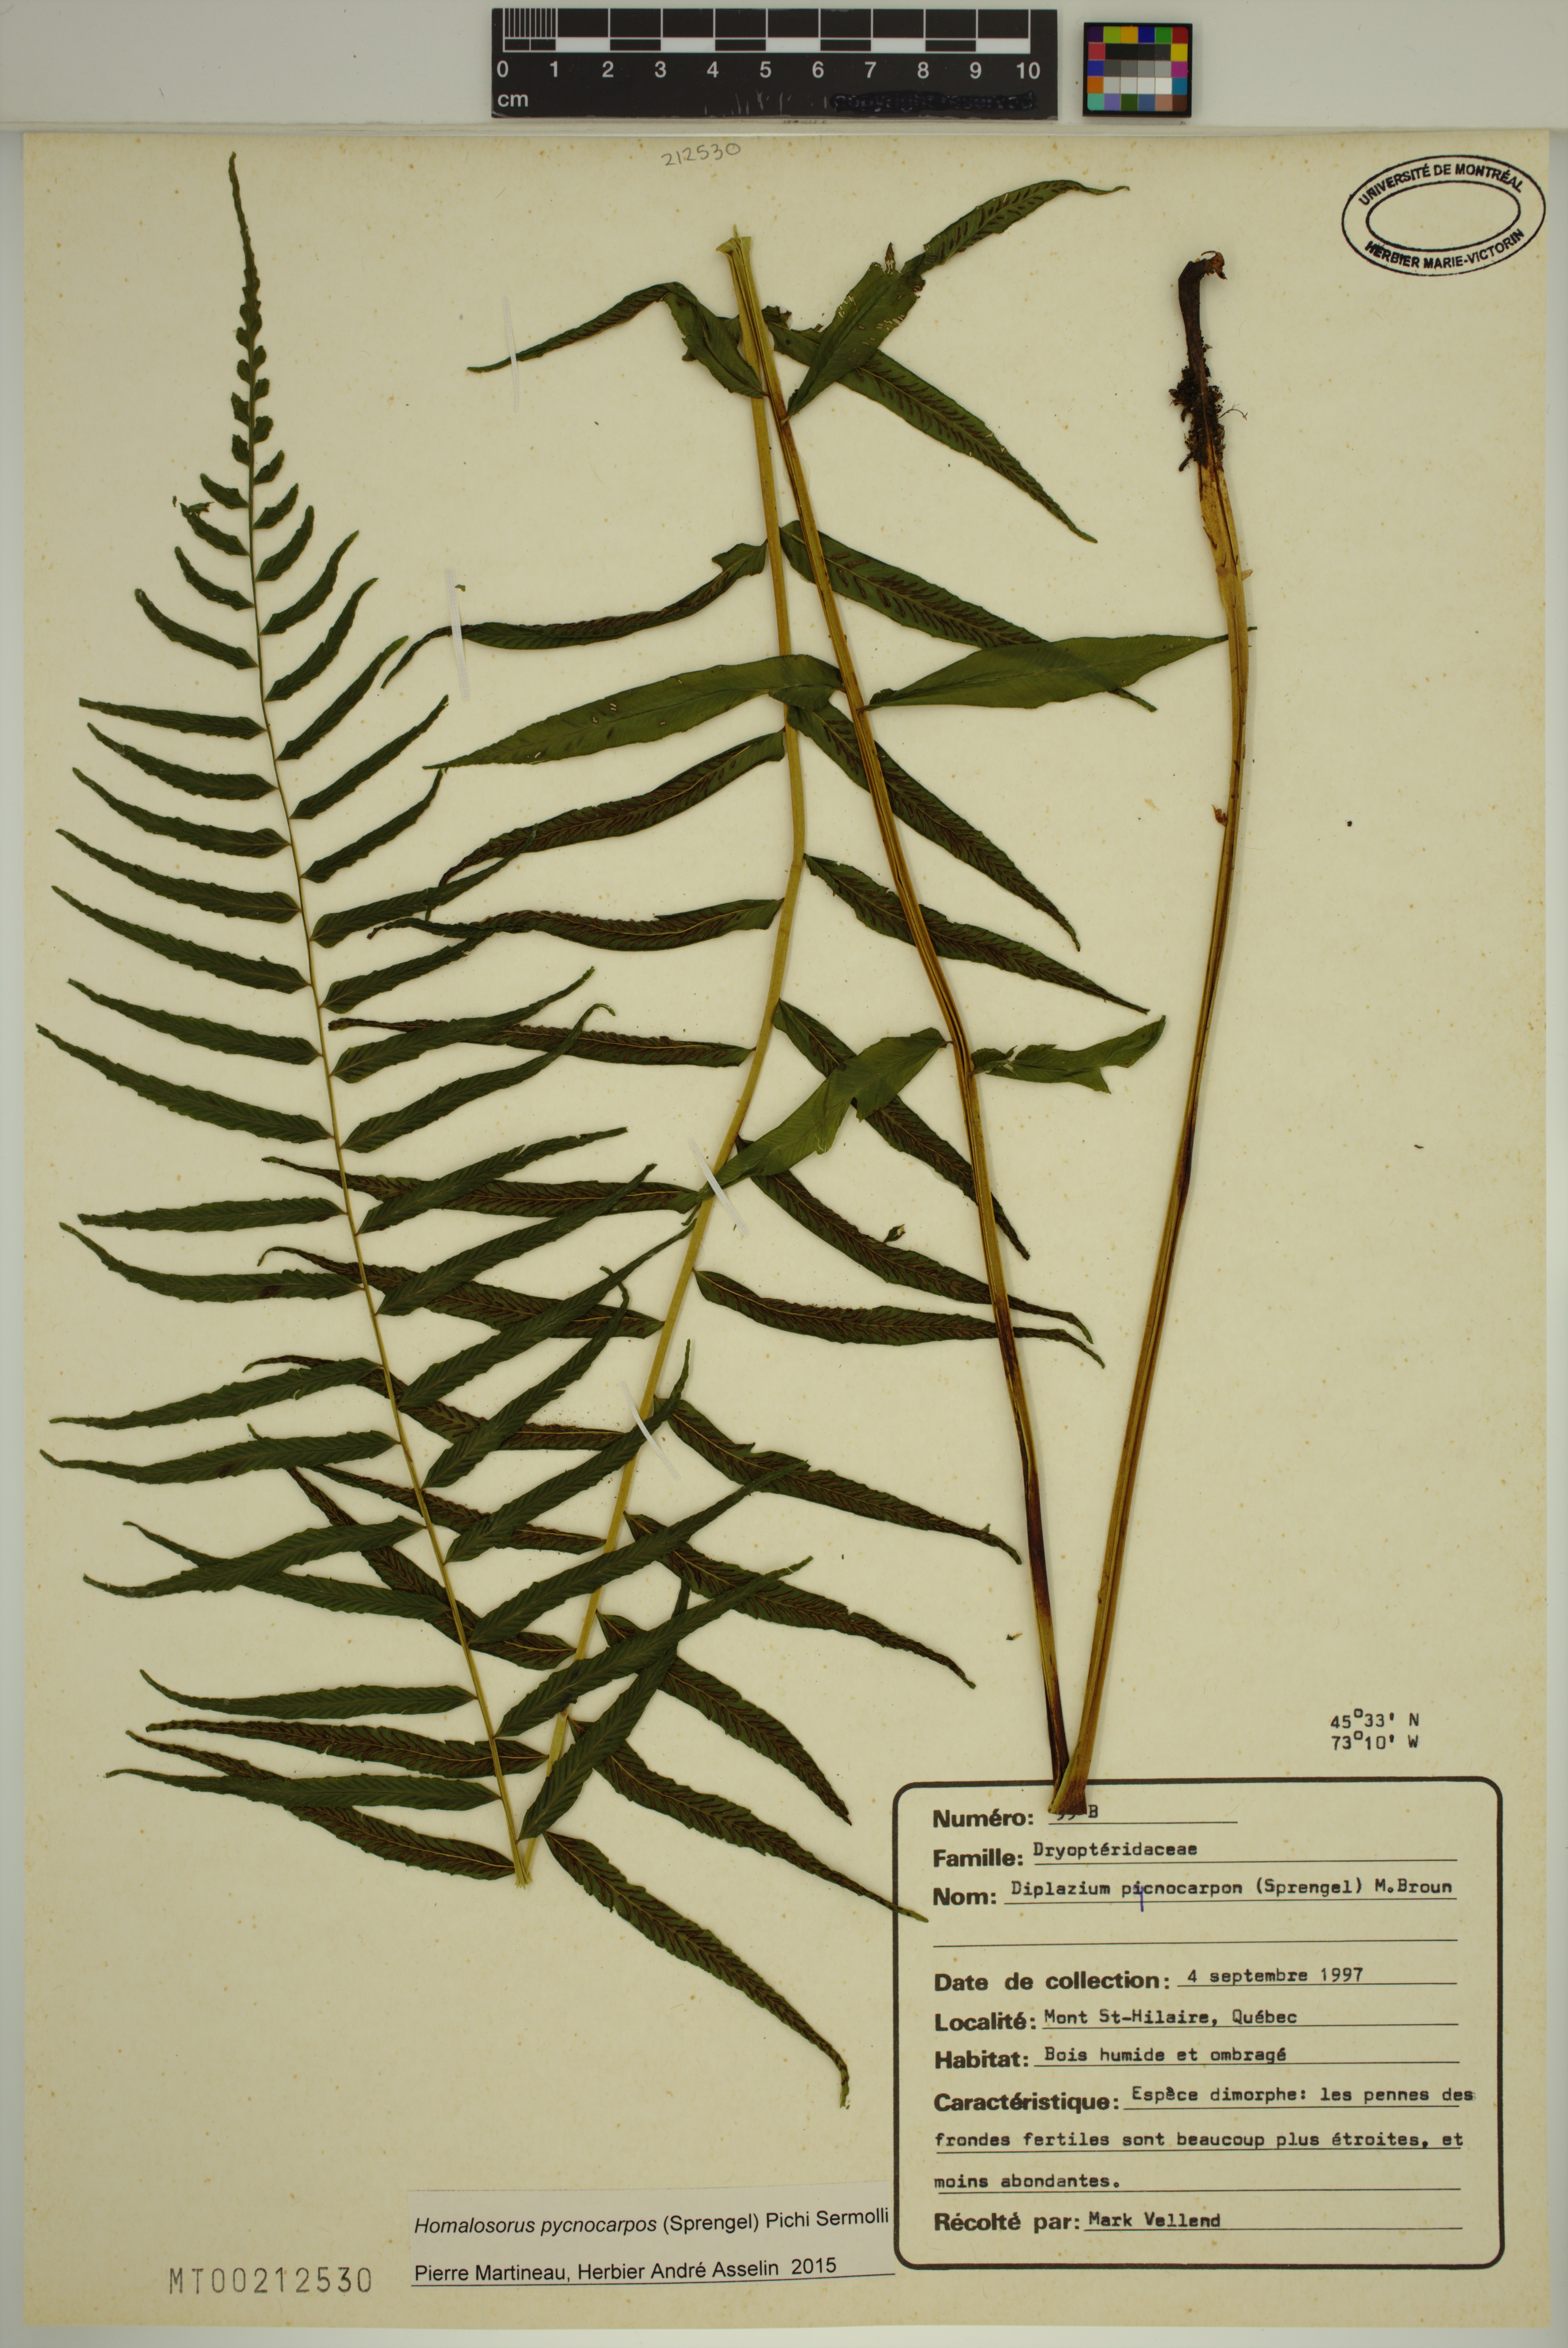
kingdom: Plantae
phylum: Tracheophyta
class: Polypodiopsida
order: Polypodiales
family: Diplaziopsidaceae
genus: Homalosorus
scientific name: Homalosorus pycnocarpos
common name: Glade fern
